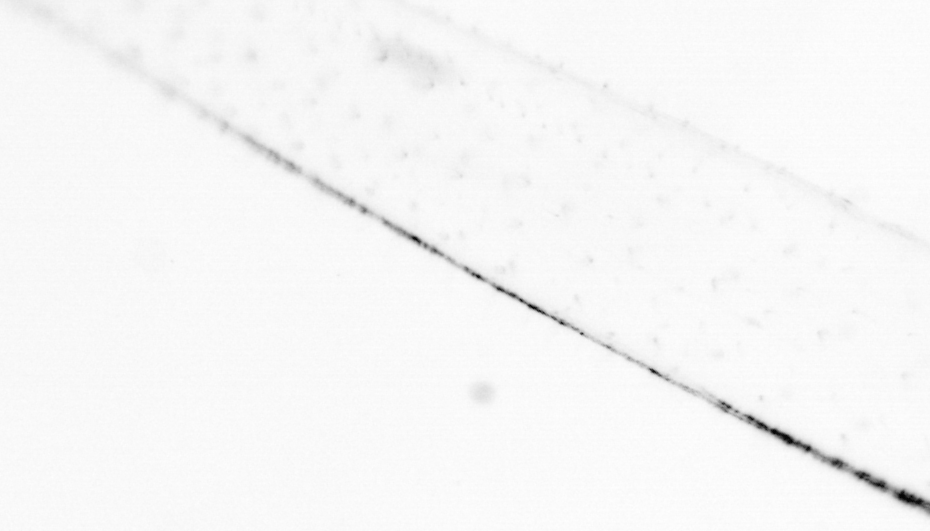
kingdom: Animalia
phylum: Chaetognatha
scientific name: Chaetognatha
